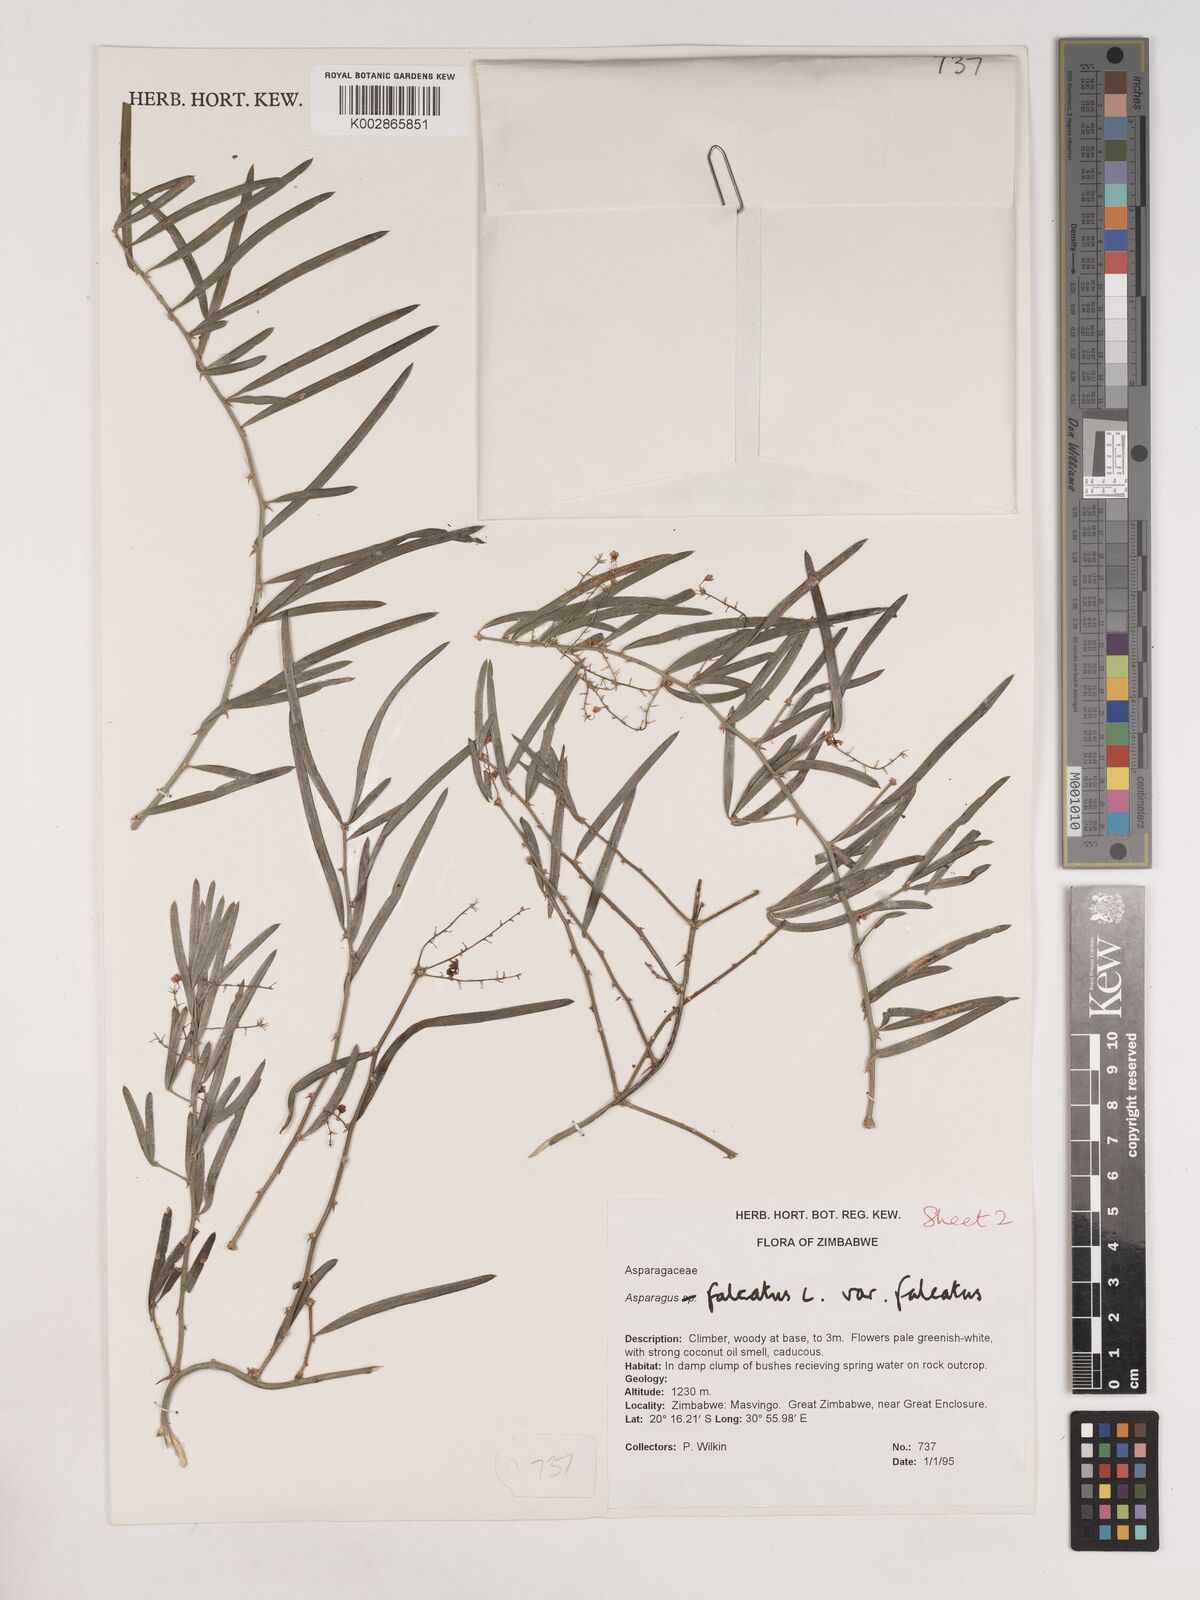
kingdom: Plantae
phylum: Tracheophyta
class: Liliopsida
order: Asparagales
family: Asparagaceae
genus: Asparagus
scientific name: Asparagus falcatus
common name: Asparagus
